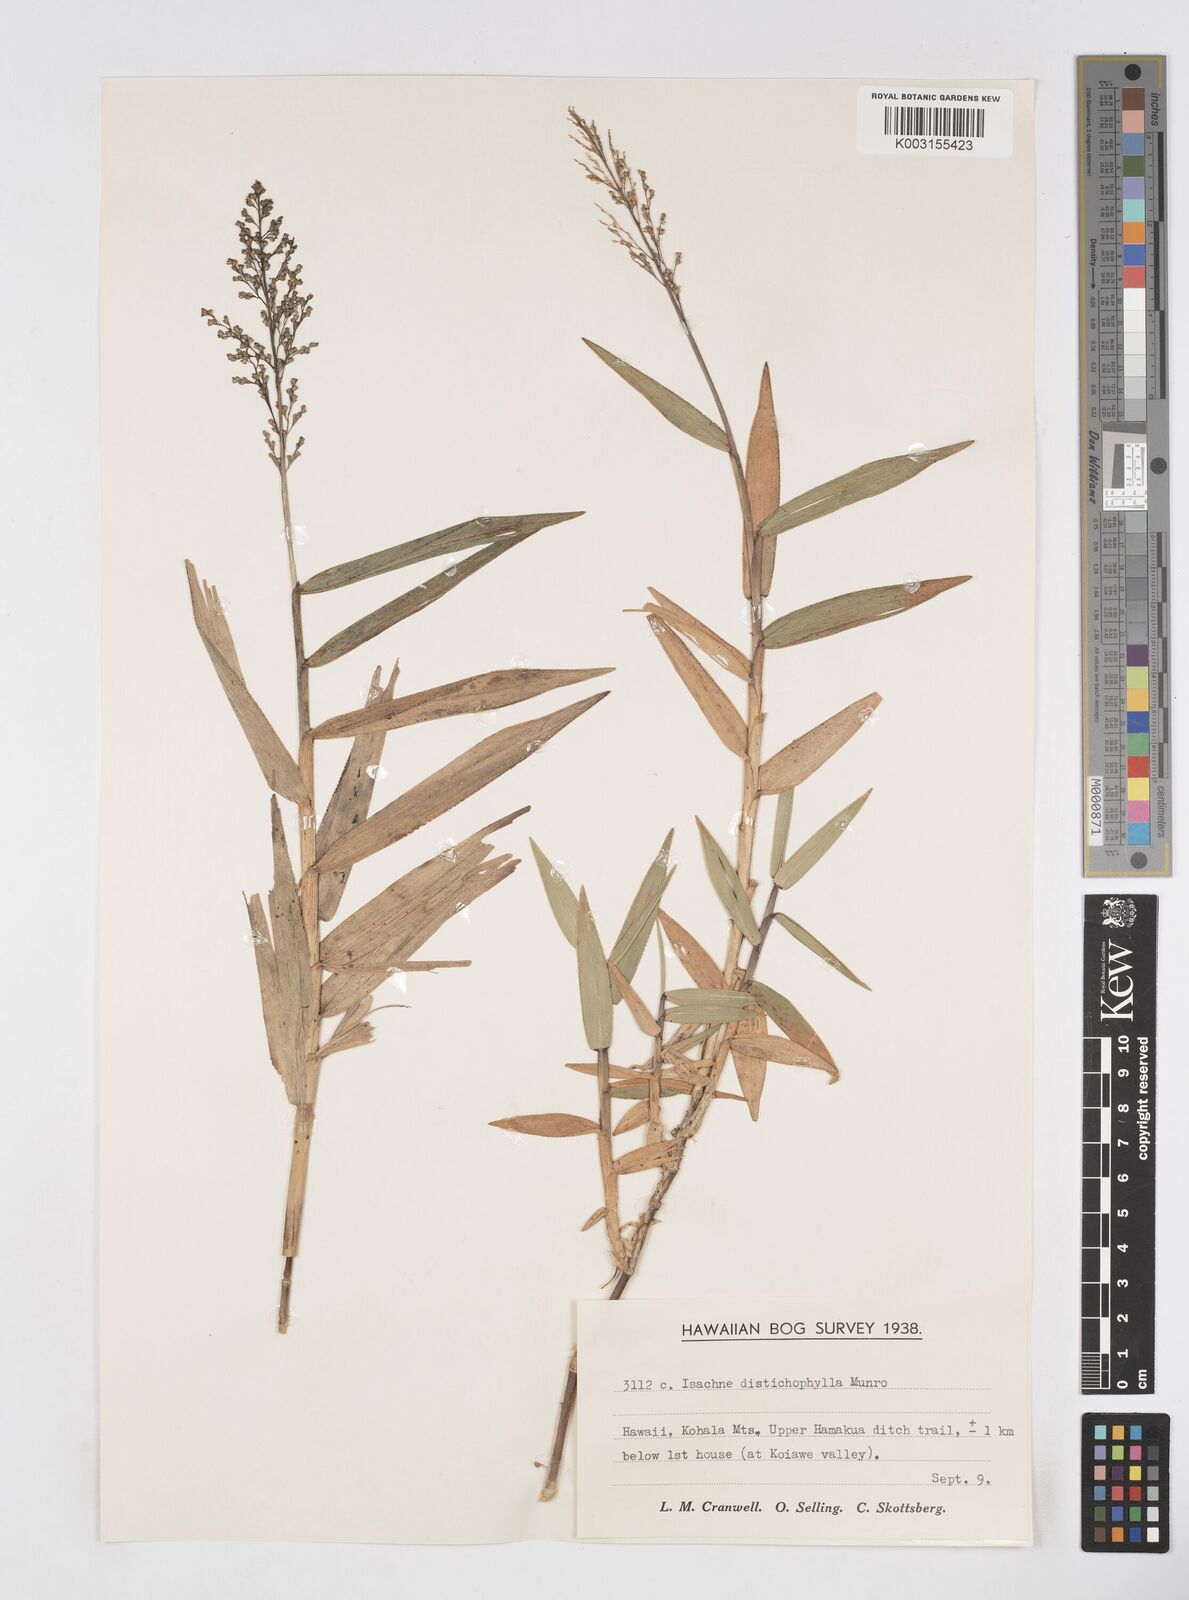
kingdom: Plantae
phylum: Tracheophyta
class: Liliopsida
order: Poales
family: Poaceae
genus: Isachne
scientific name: Isachne distichophylla
